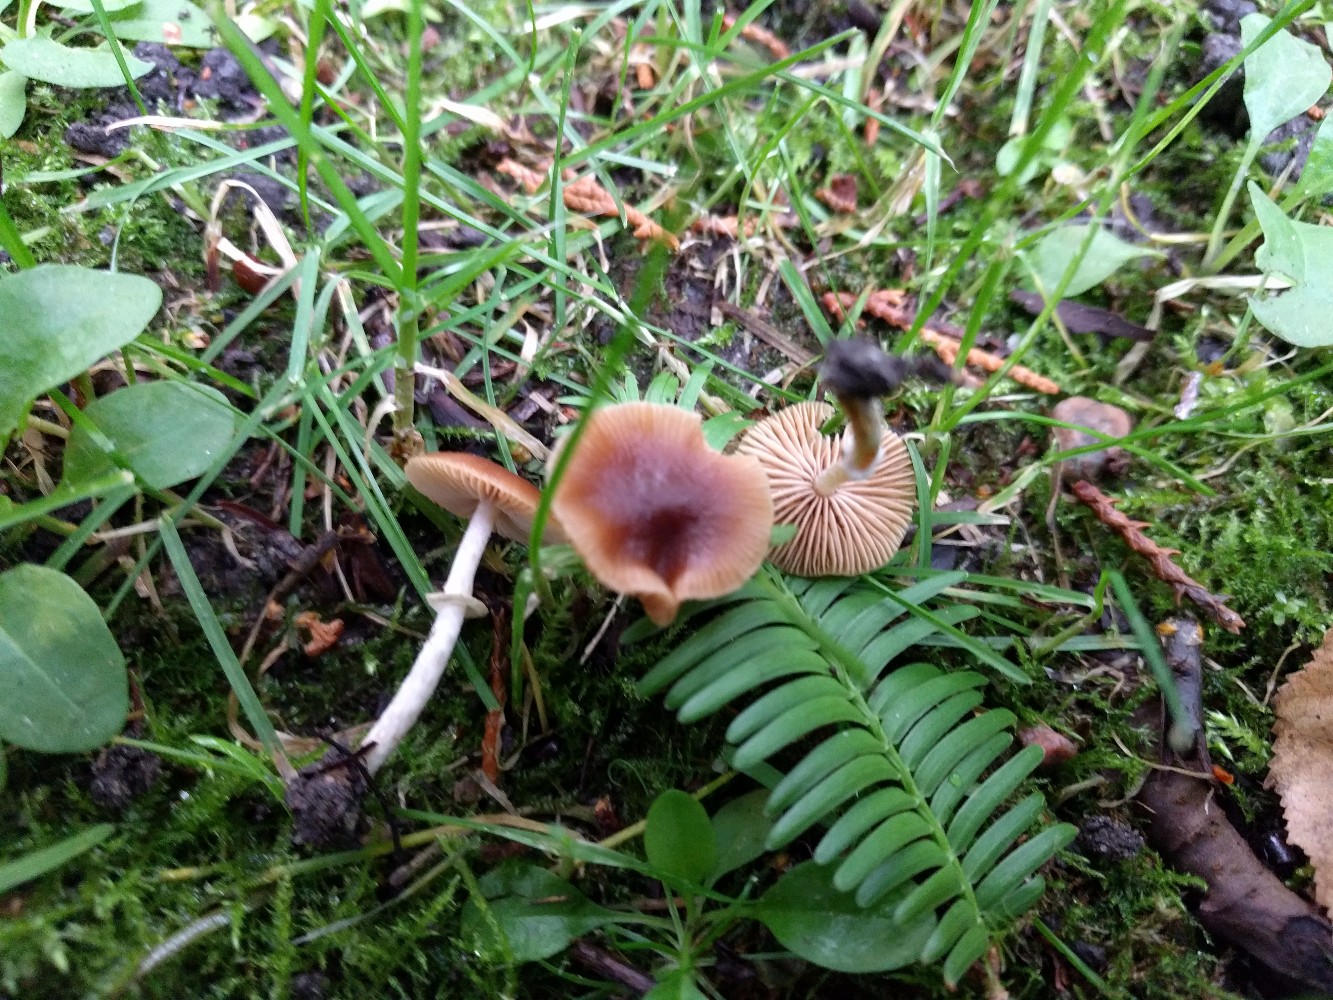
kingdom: Fungi
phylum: Basidiomycota
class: Agaricomycetes
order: Agaricales
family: Bolbitiaceae
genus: Conocybe
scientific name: Conocybe arrhenii
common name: ring-dansehat
